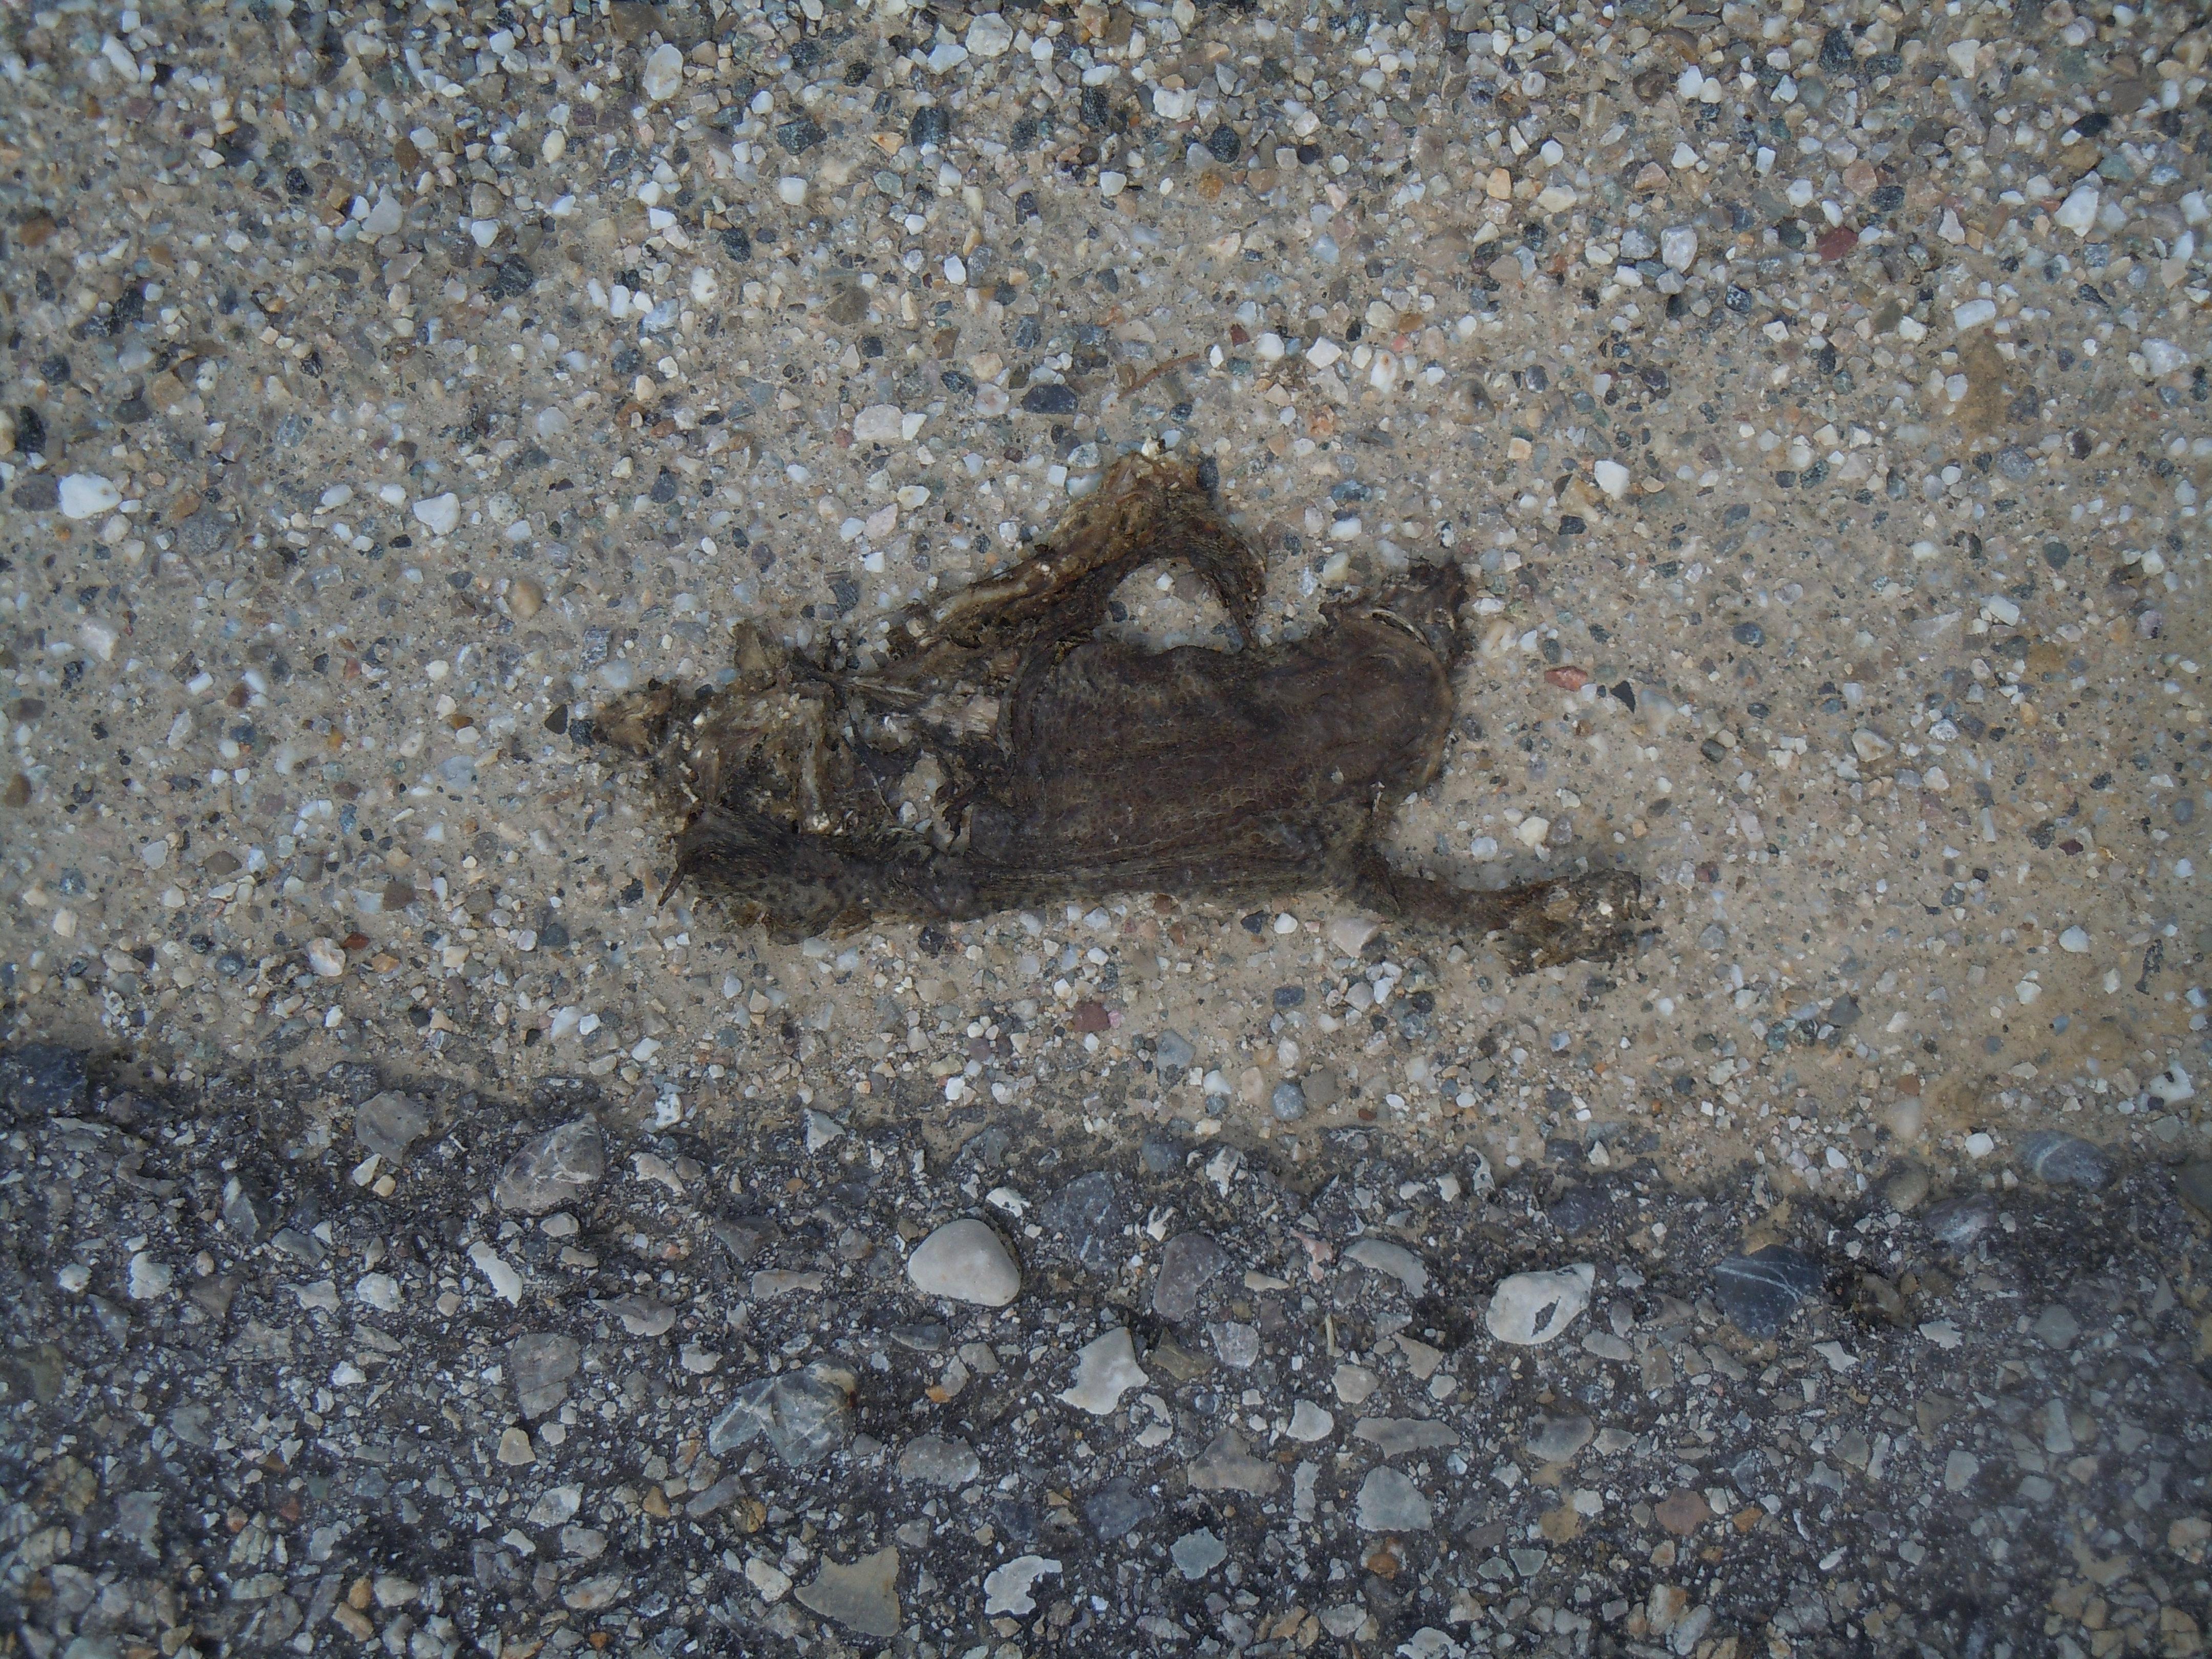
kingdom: Animalia
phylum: Chordata
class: Amphibia
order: Anura
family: Bufonidae
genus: Bufo
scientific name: Bufo bufo
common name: Common toad
